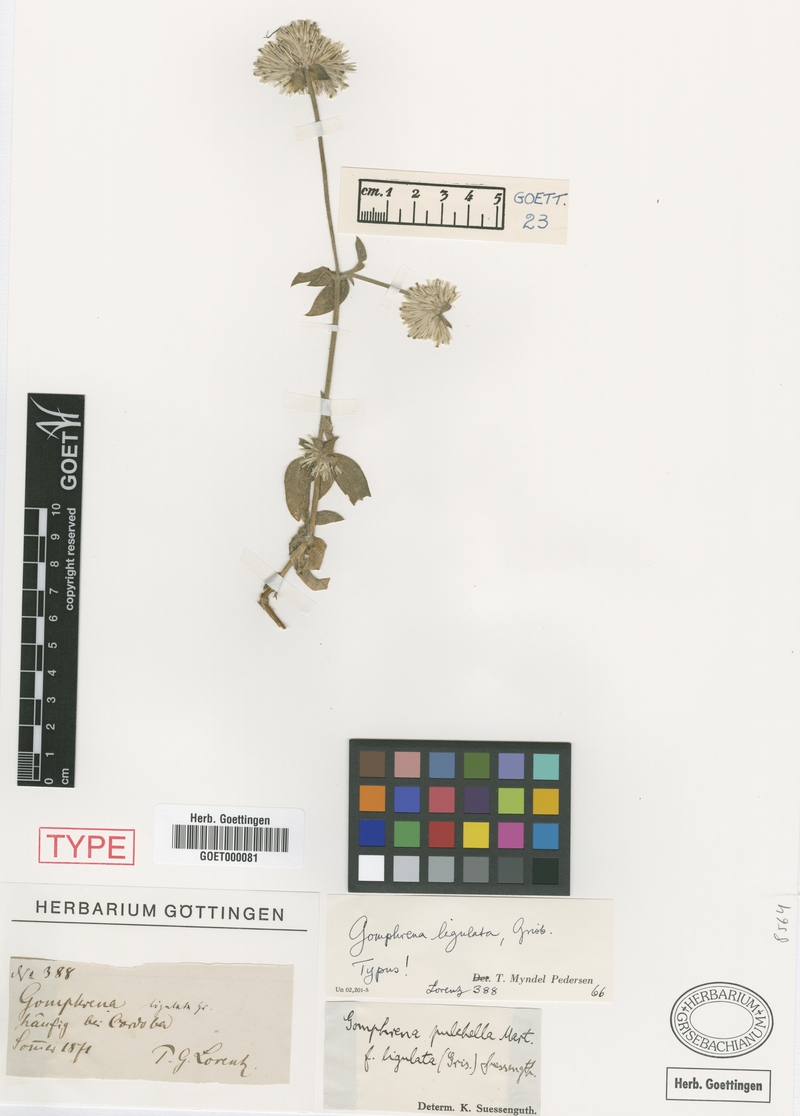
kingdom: Plantae
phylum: Tracheophyta
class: Magnoliopsida
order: Caryophyllales
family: Amaranthaceae
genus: Gomphrena
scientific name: Gomphrena haenkeana
